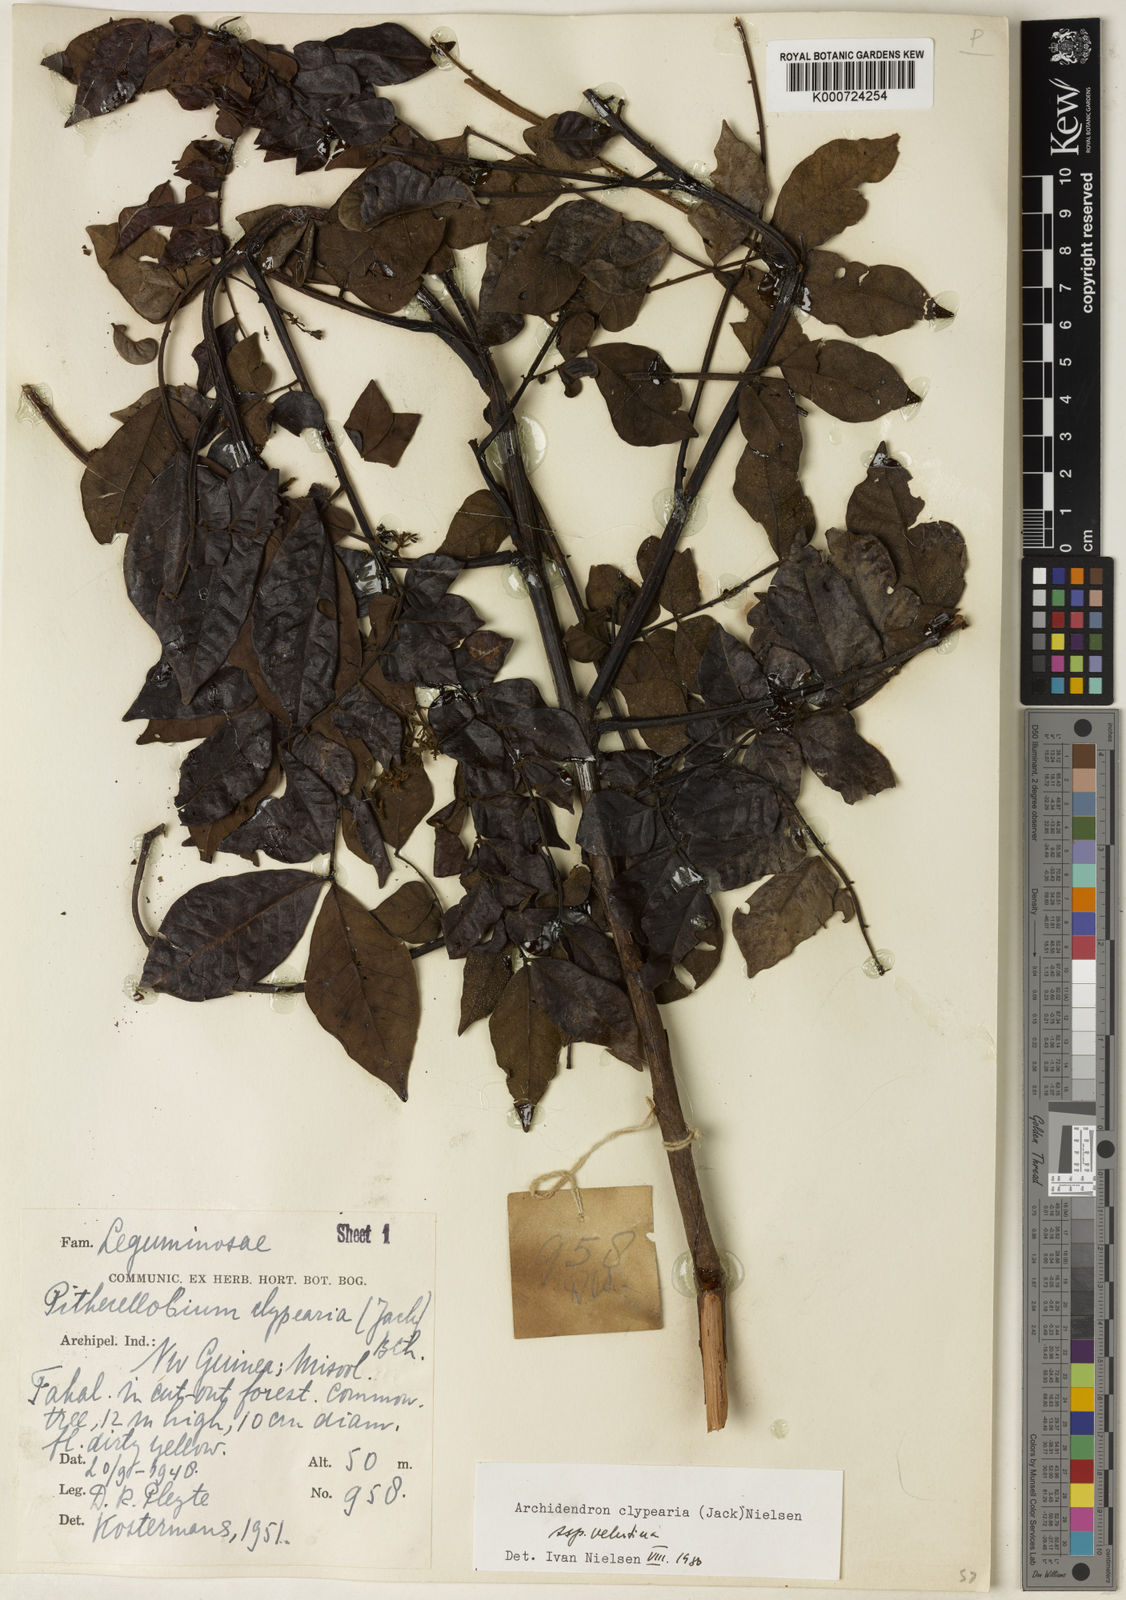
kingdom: Plantae
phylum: Tracheophyta
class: Magnoliopsida
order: Fabales
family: Fabaceae
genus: Archidendron
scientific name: Archidendron clypearia
